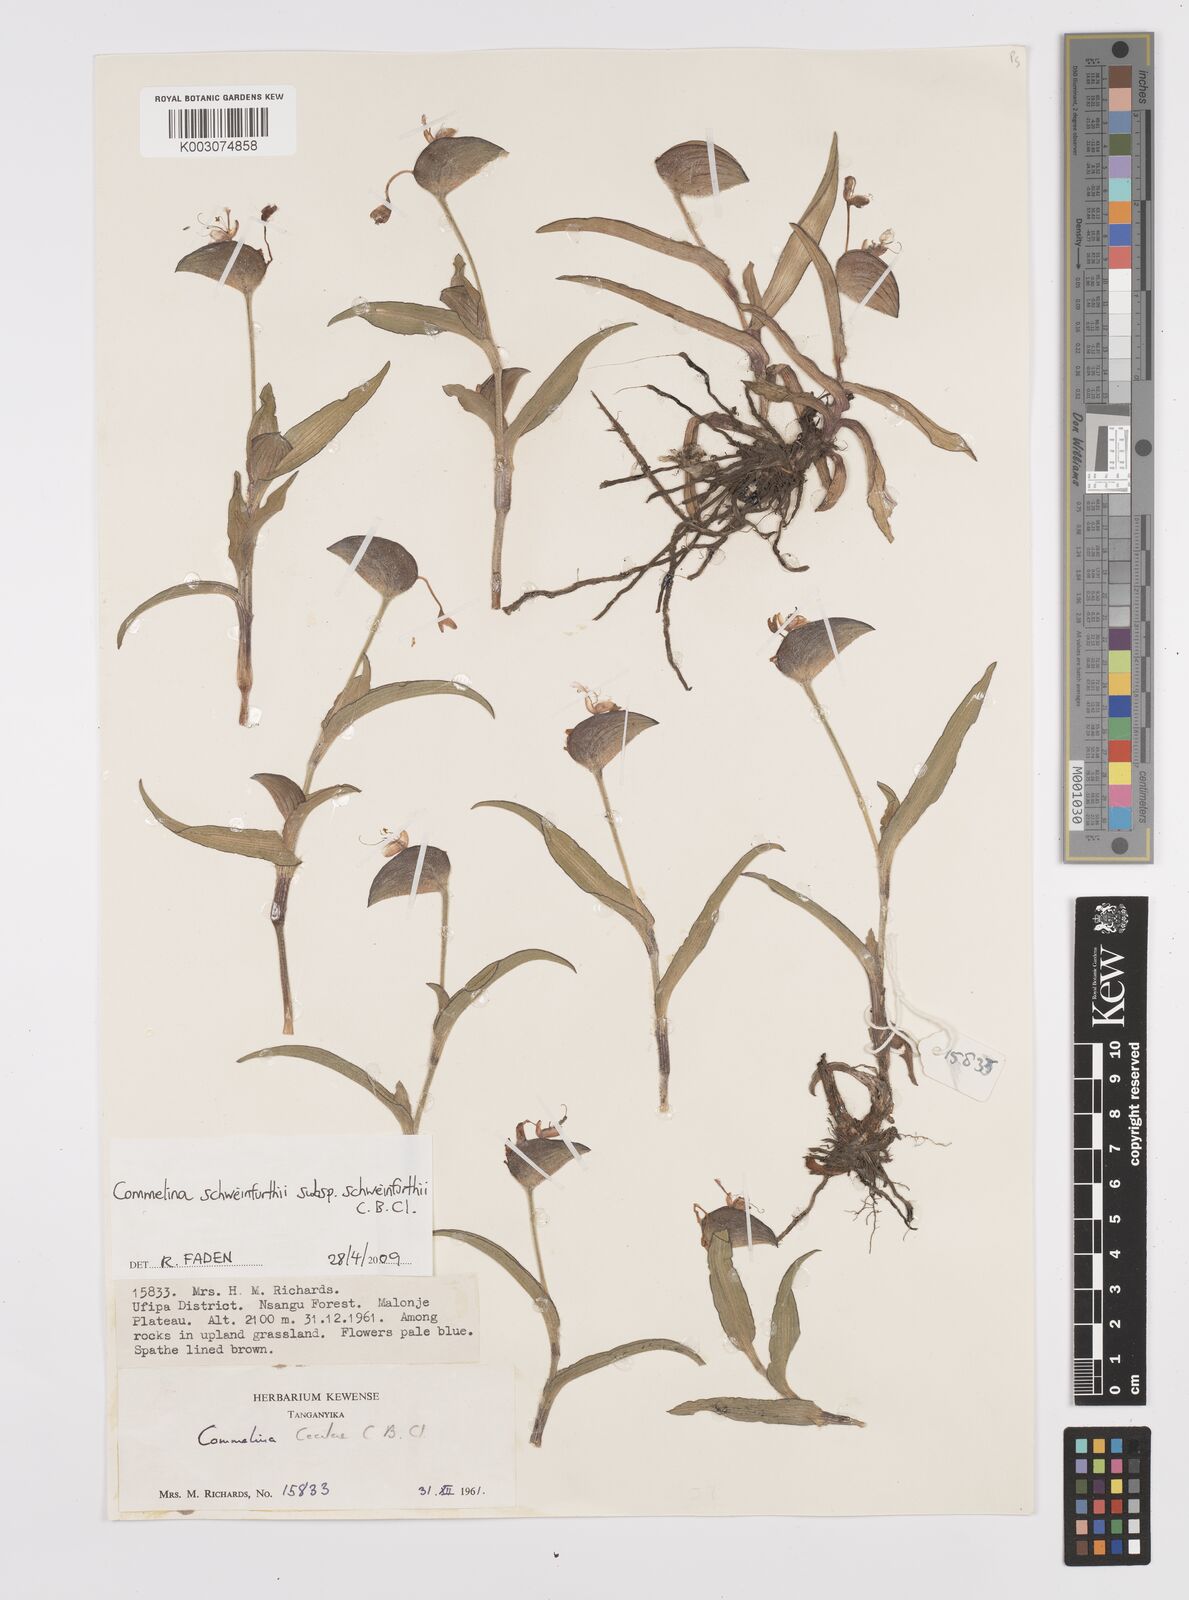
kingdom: Plantae
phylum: Tracheophyta
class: Liliopsida
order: Commelinales
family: Commelinaceae
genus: Commelina
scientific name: Commelina schweinfurthii
